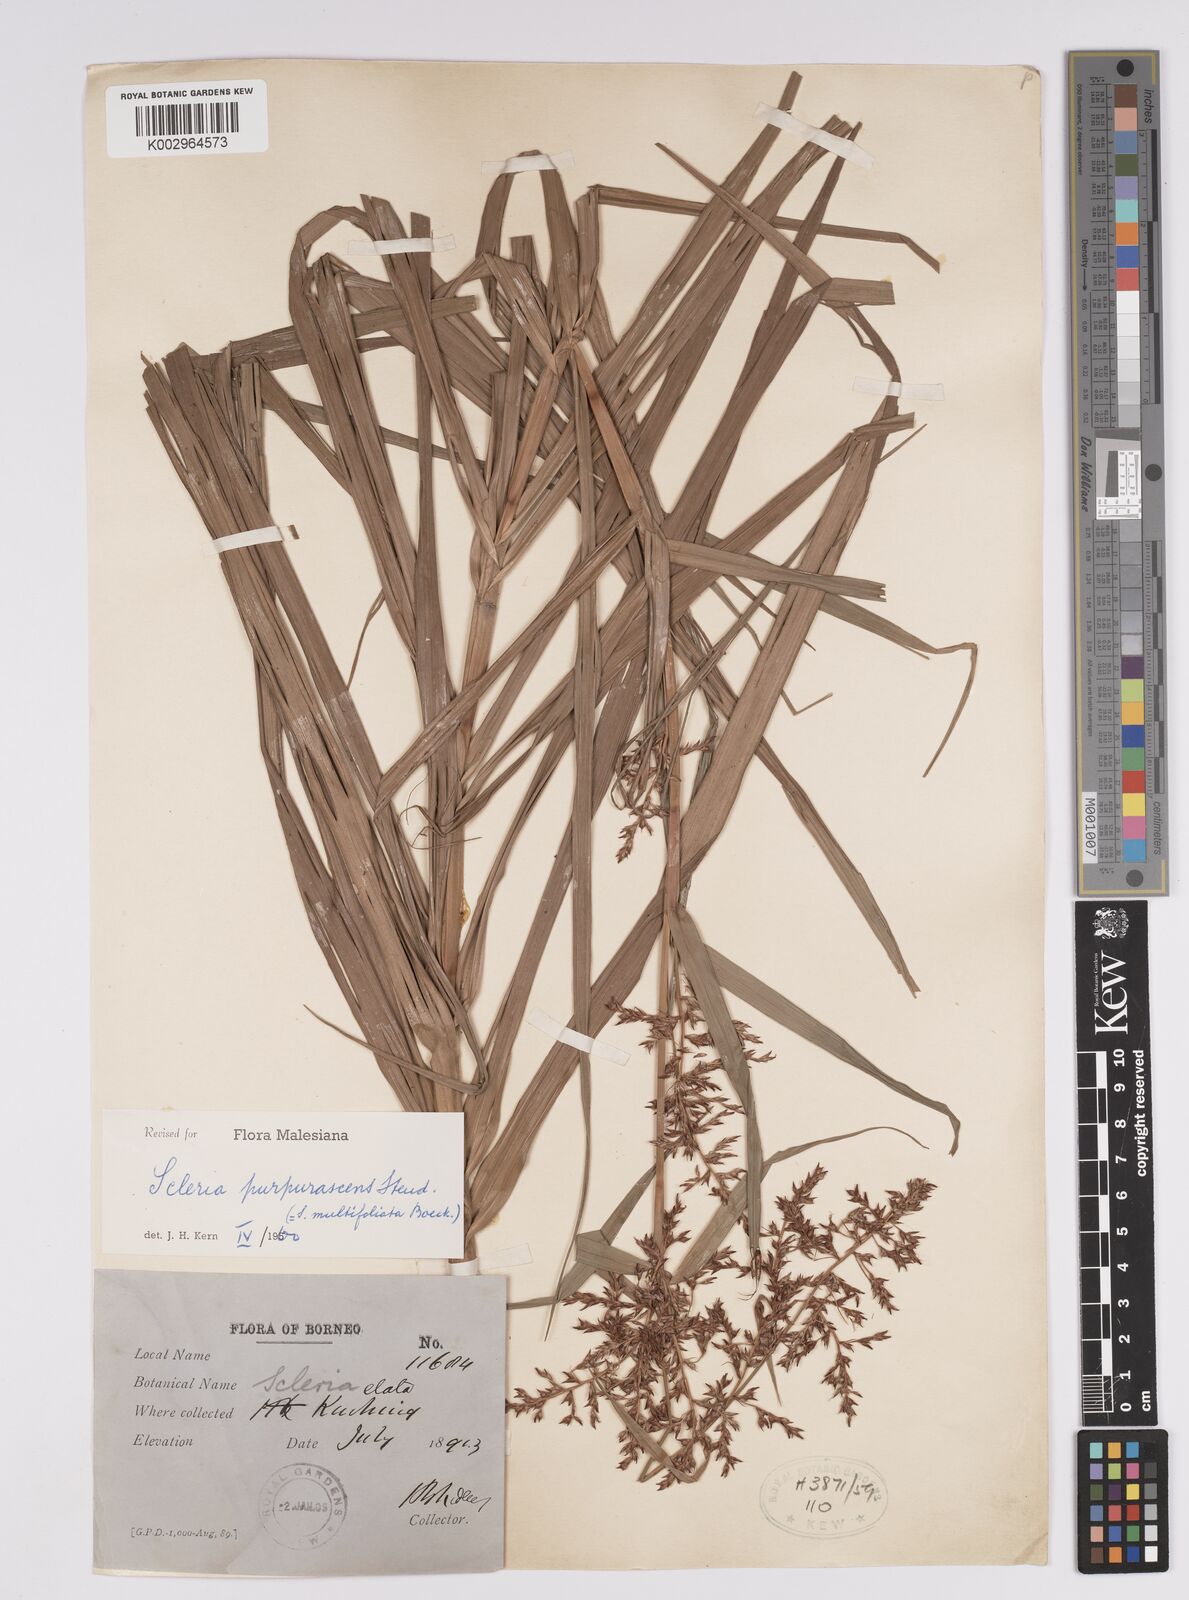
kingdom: Plantae
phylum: Tracheophyta
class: Liliopsida
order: Poales
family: Cyperaceae
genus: Scleria
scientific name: Scleria purpurascens
